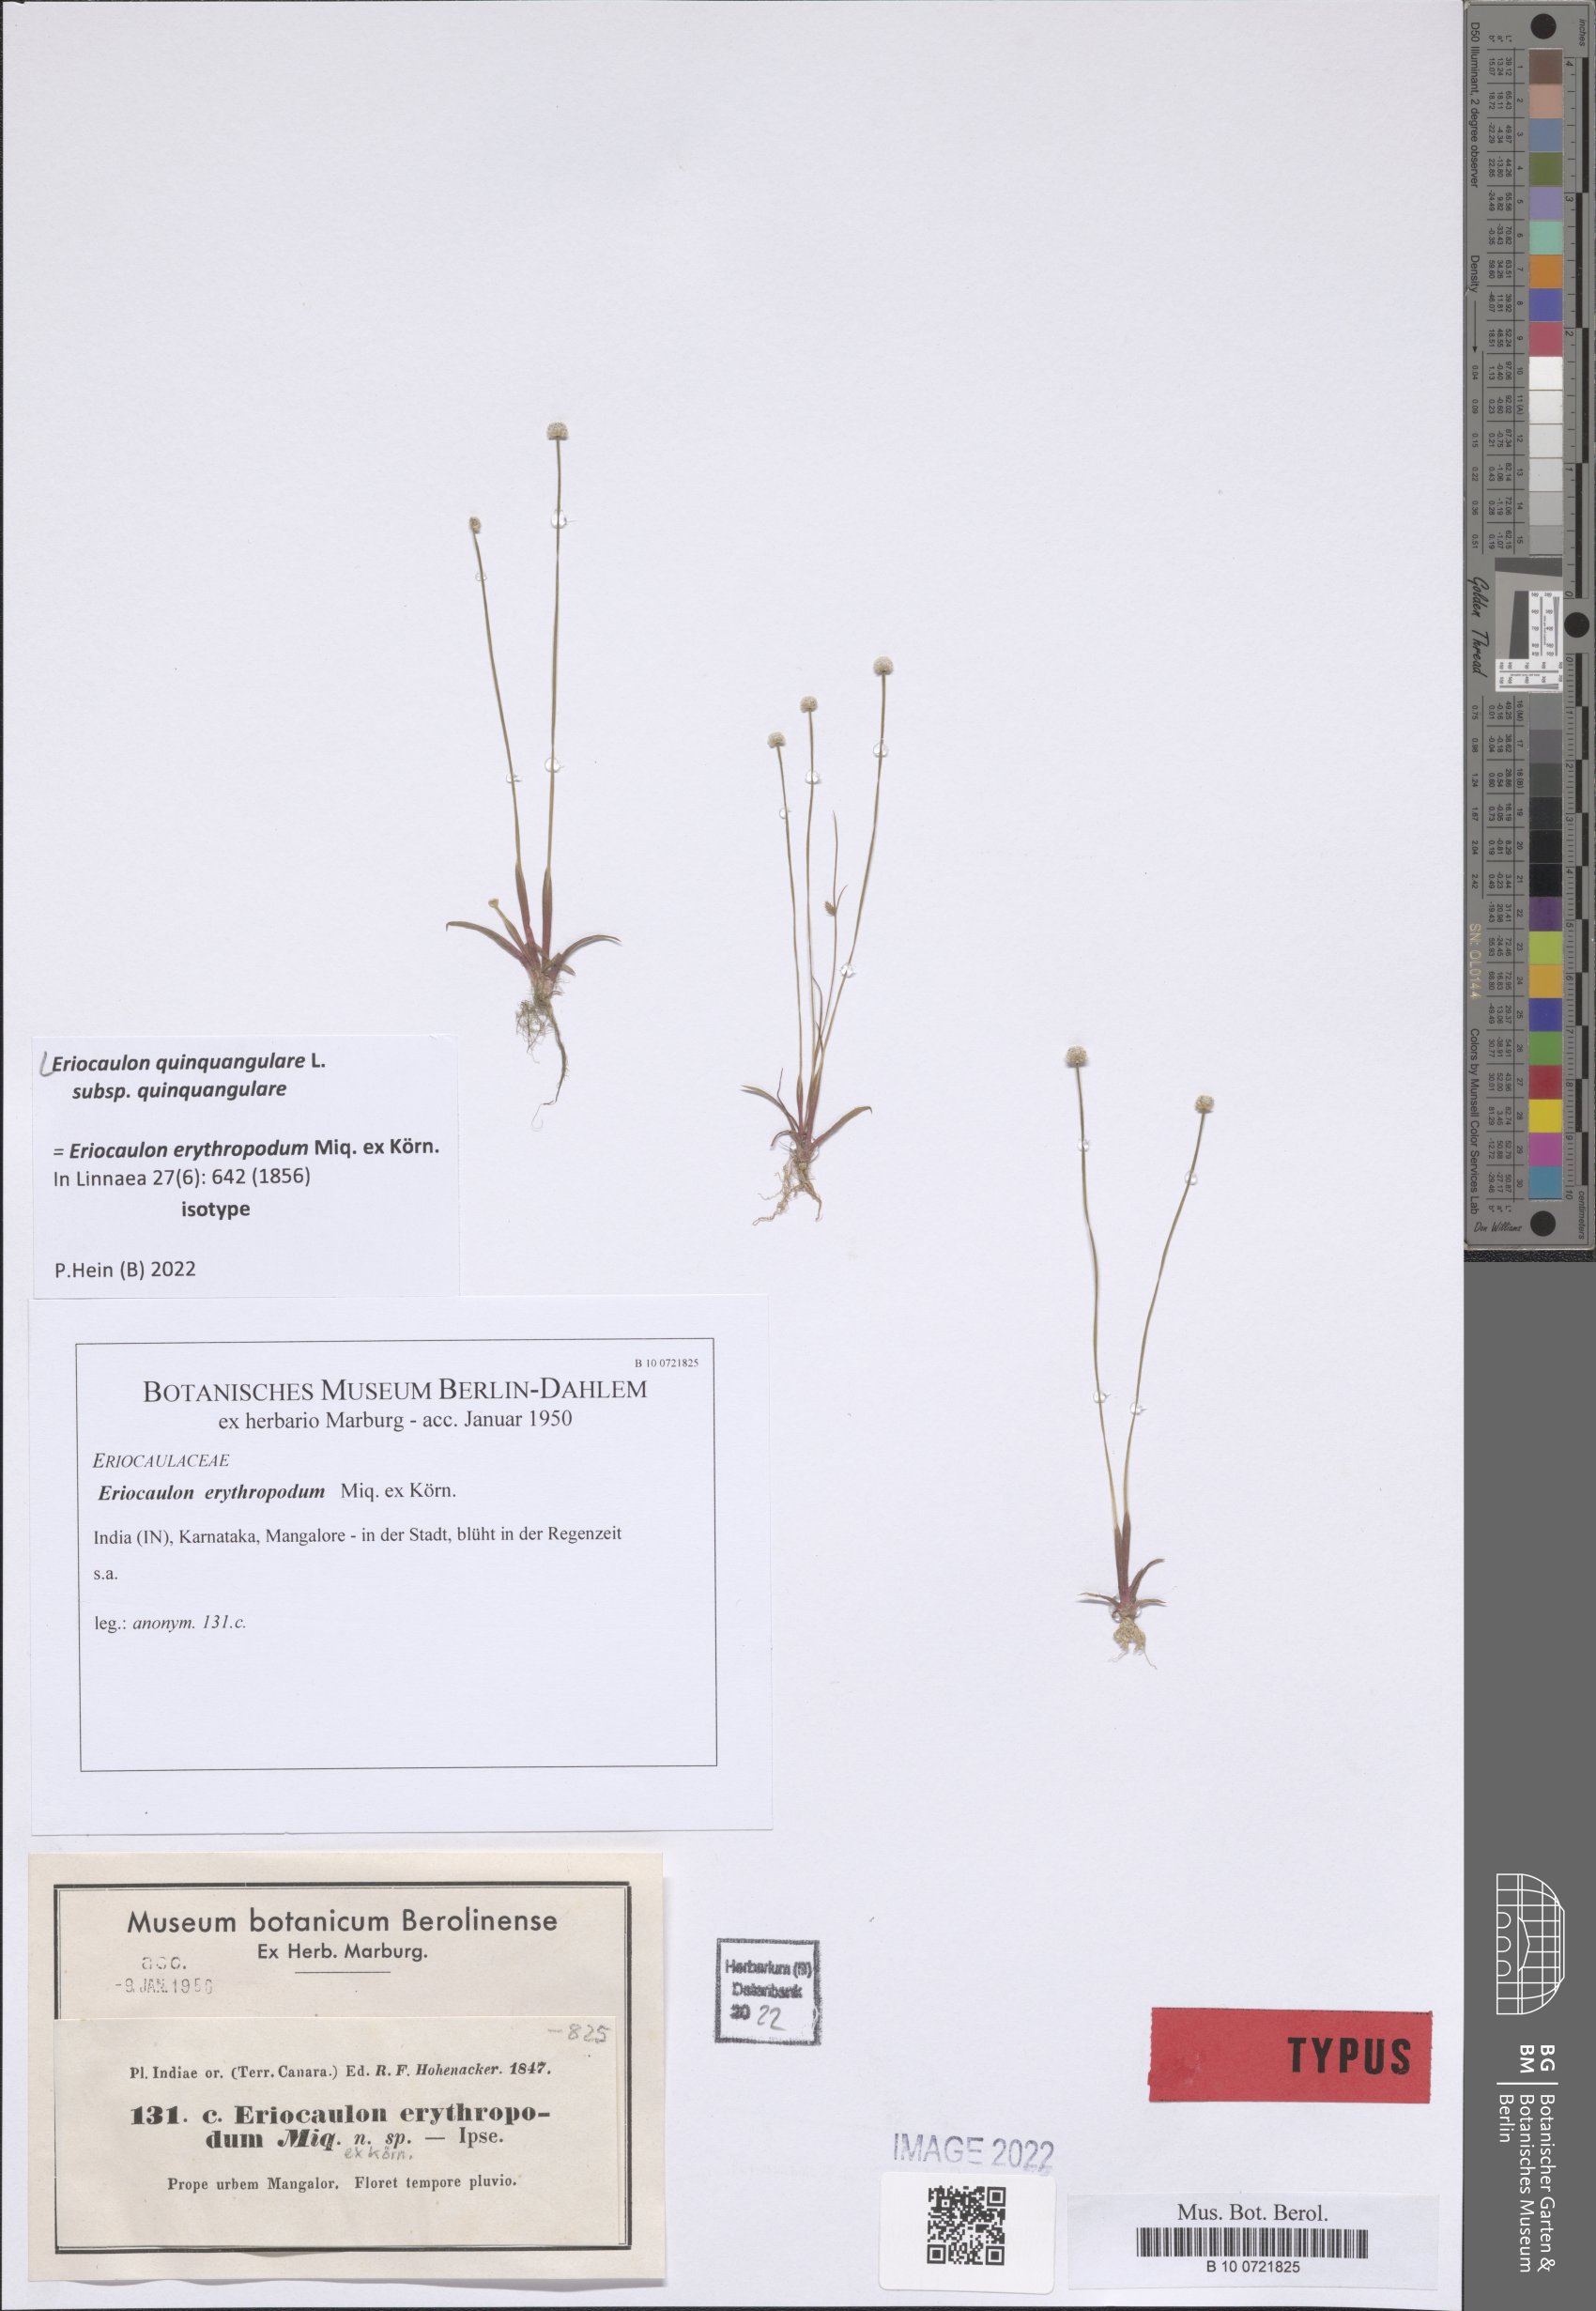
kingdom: Plantae
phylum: Tracheophyta
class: Liliopsida
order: Poales
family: Eriocaulaceae
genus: Eriocaulon
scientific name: Eriocaulon quinquangulare
